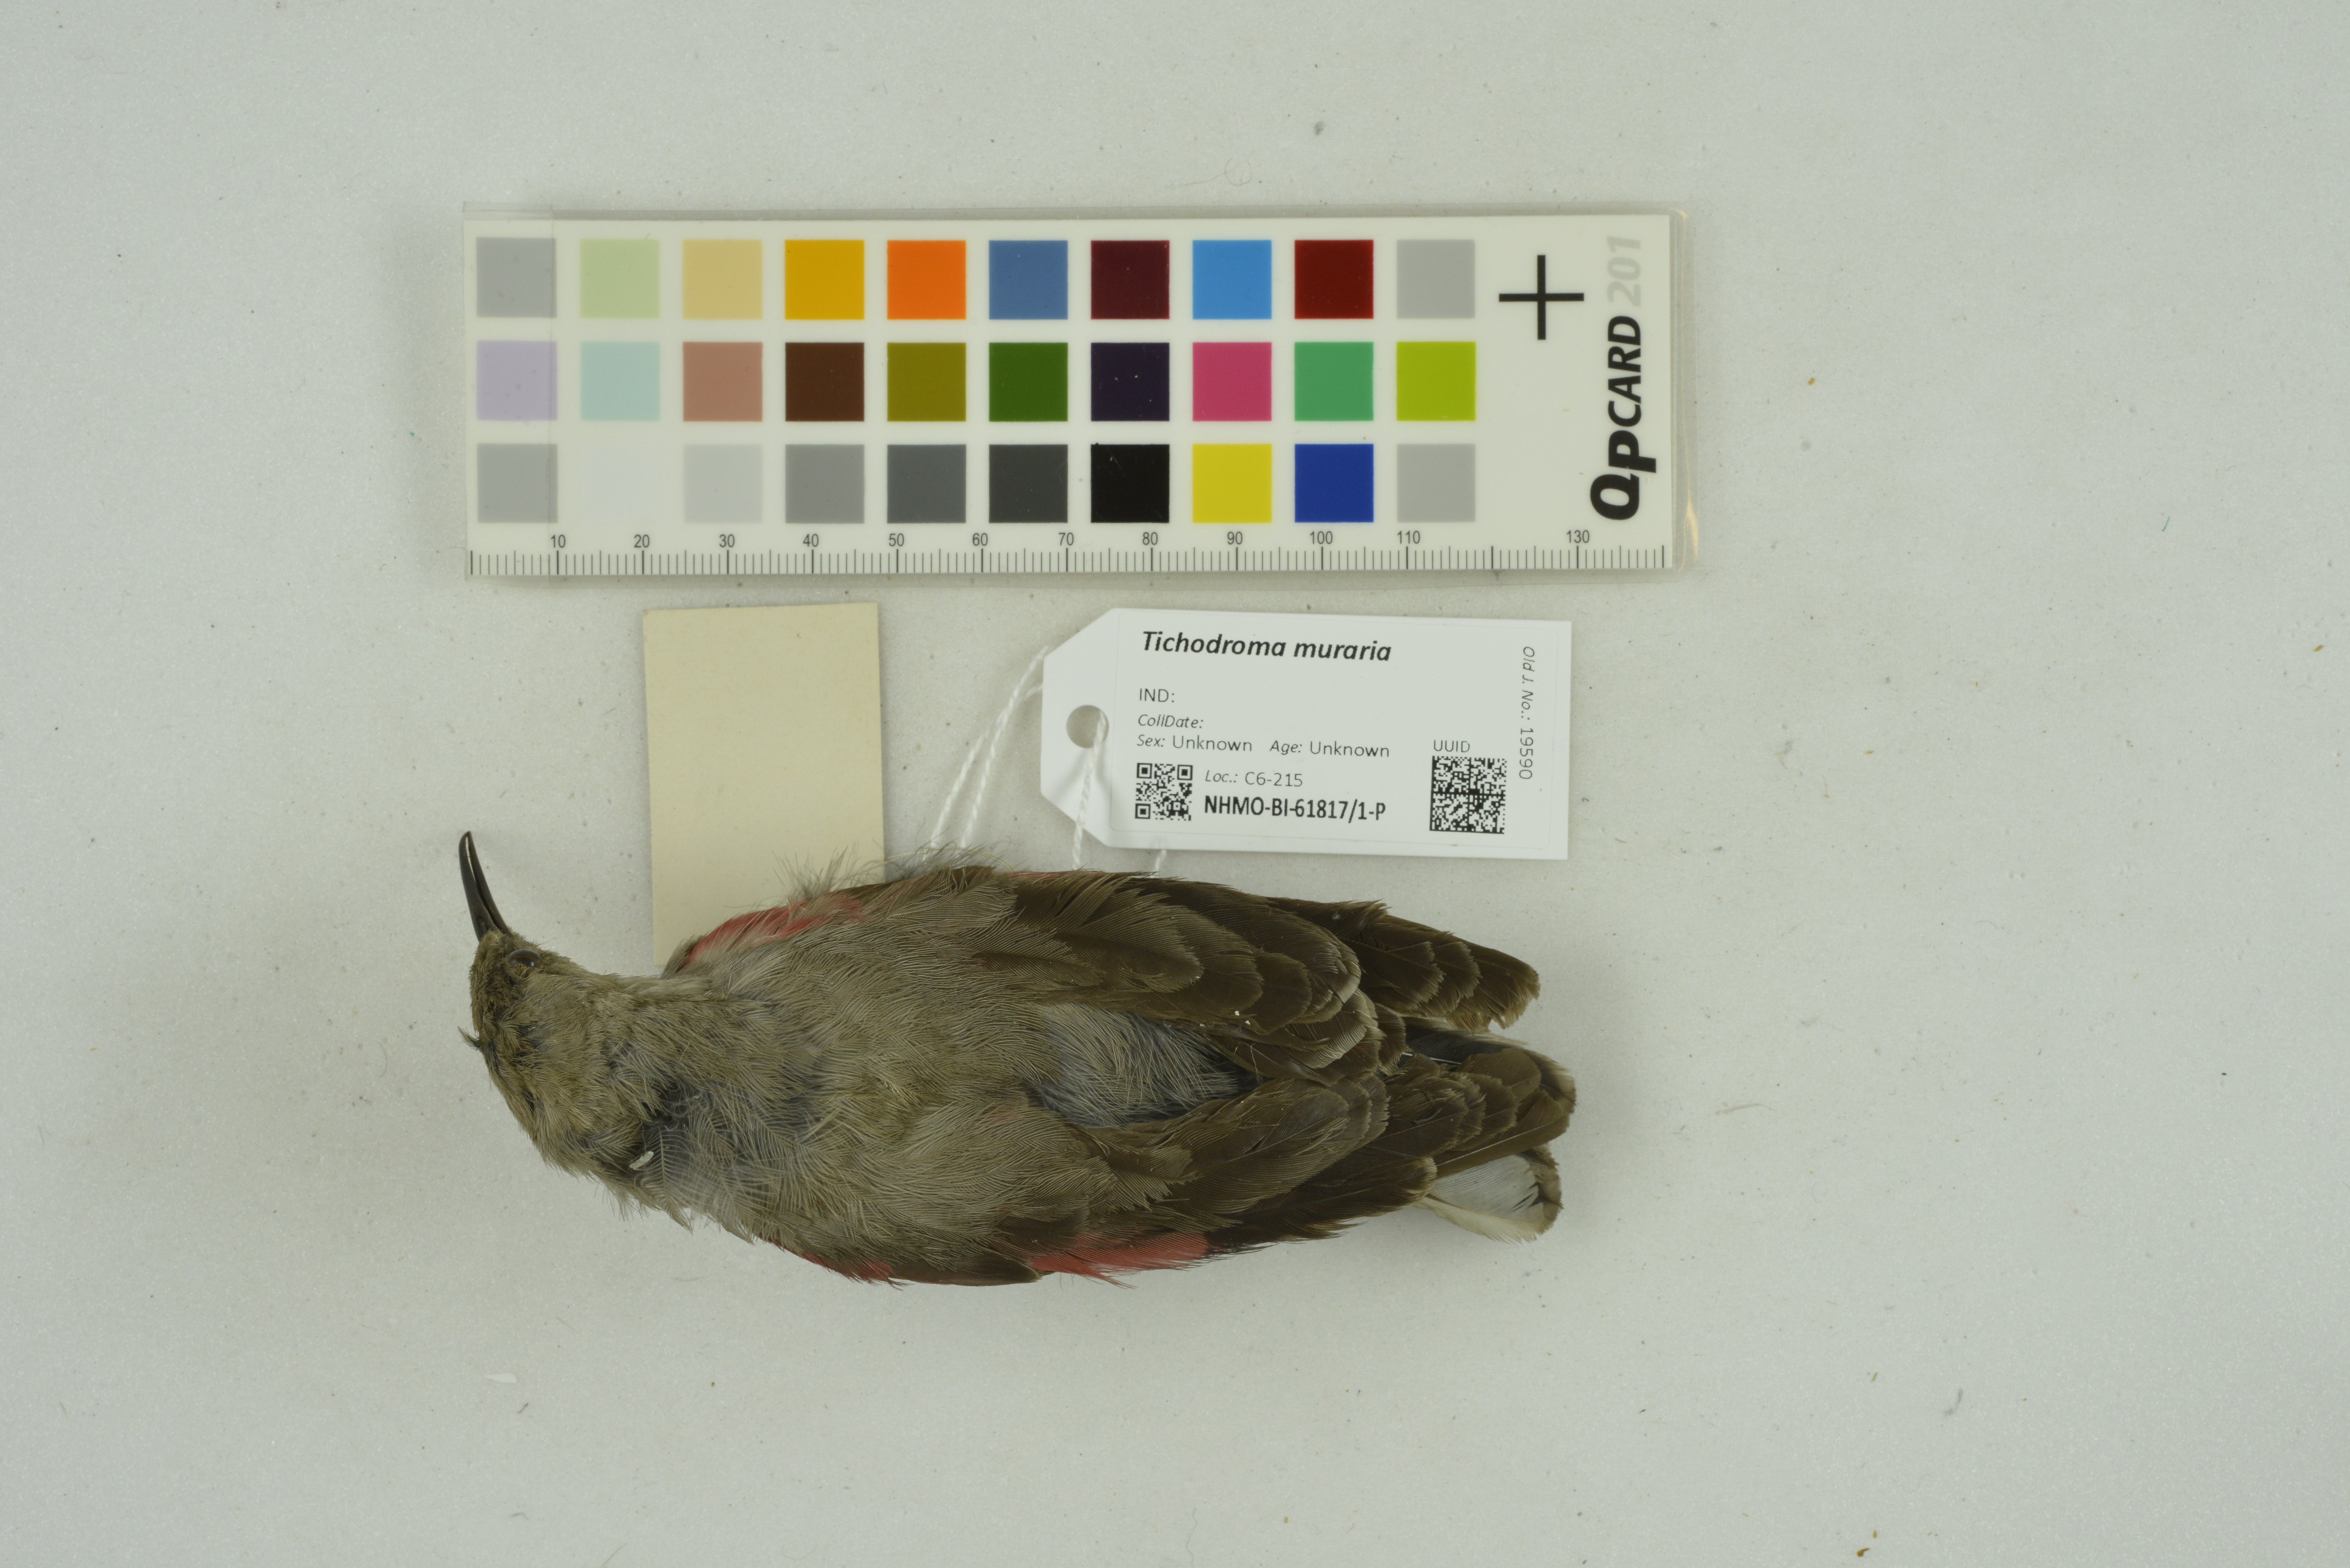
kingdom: Animalia
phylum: Chordata
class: Aves
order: Passeriformes
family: Tichodromidae
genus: Tichodroma
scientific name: Tichodroma muraria
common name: Wallcreeper
